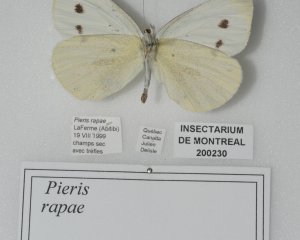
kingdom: Animalia
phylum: Arthropoda
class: Insecta
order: Lepidoptera
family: Pieridae
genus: Pieris
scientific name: Pieris rapae
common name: Cabbage White
